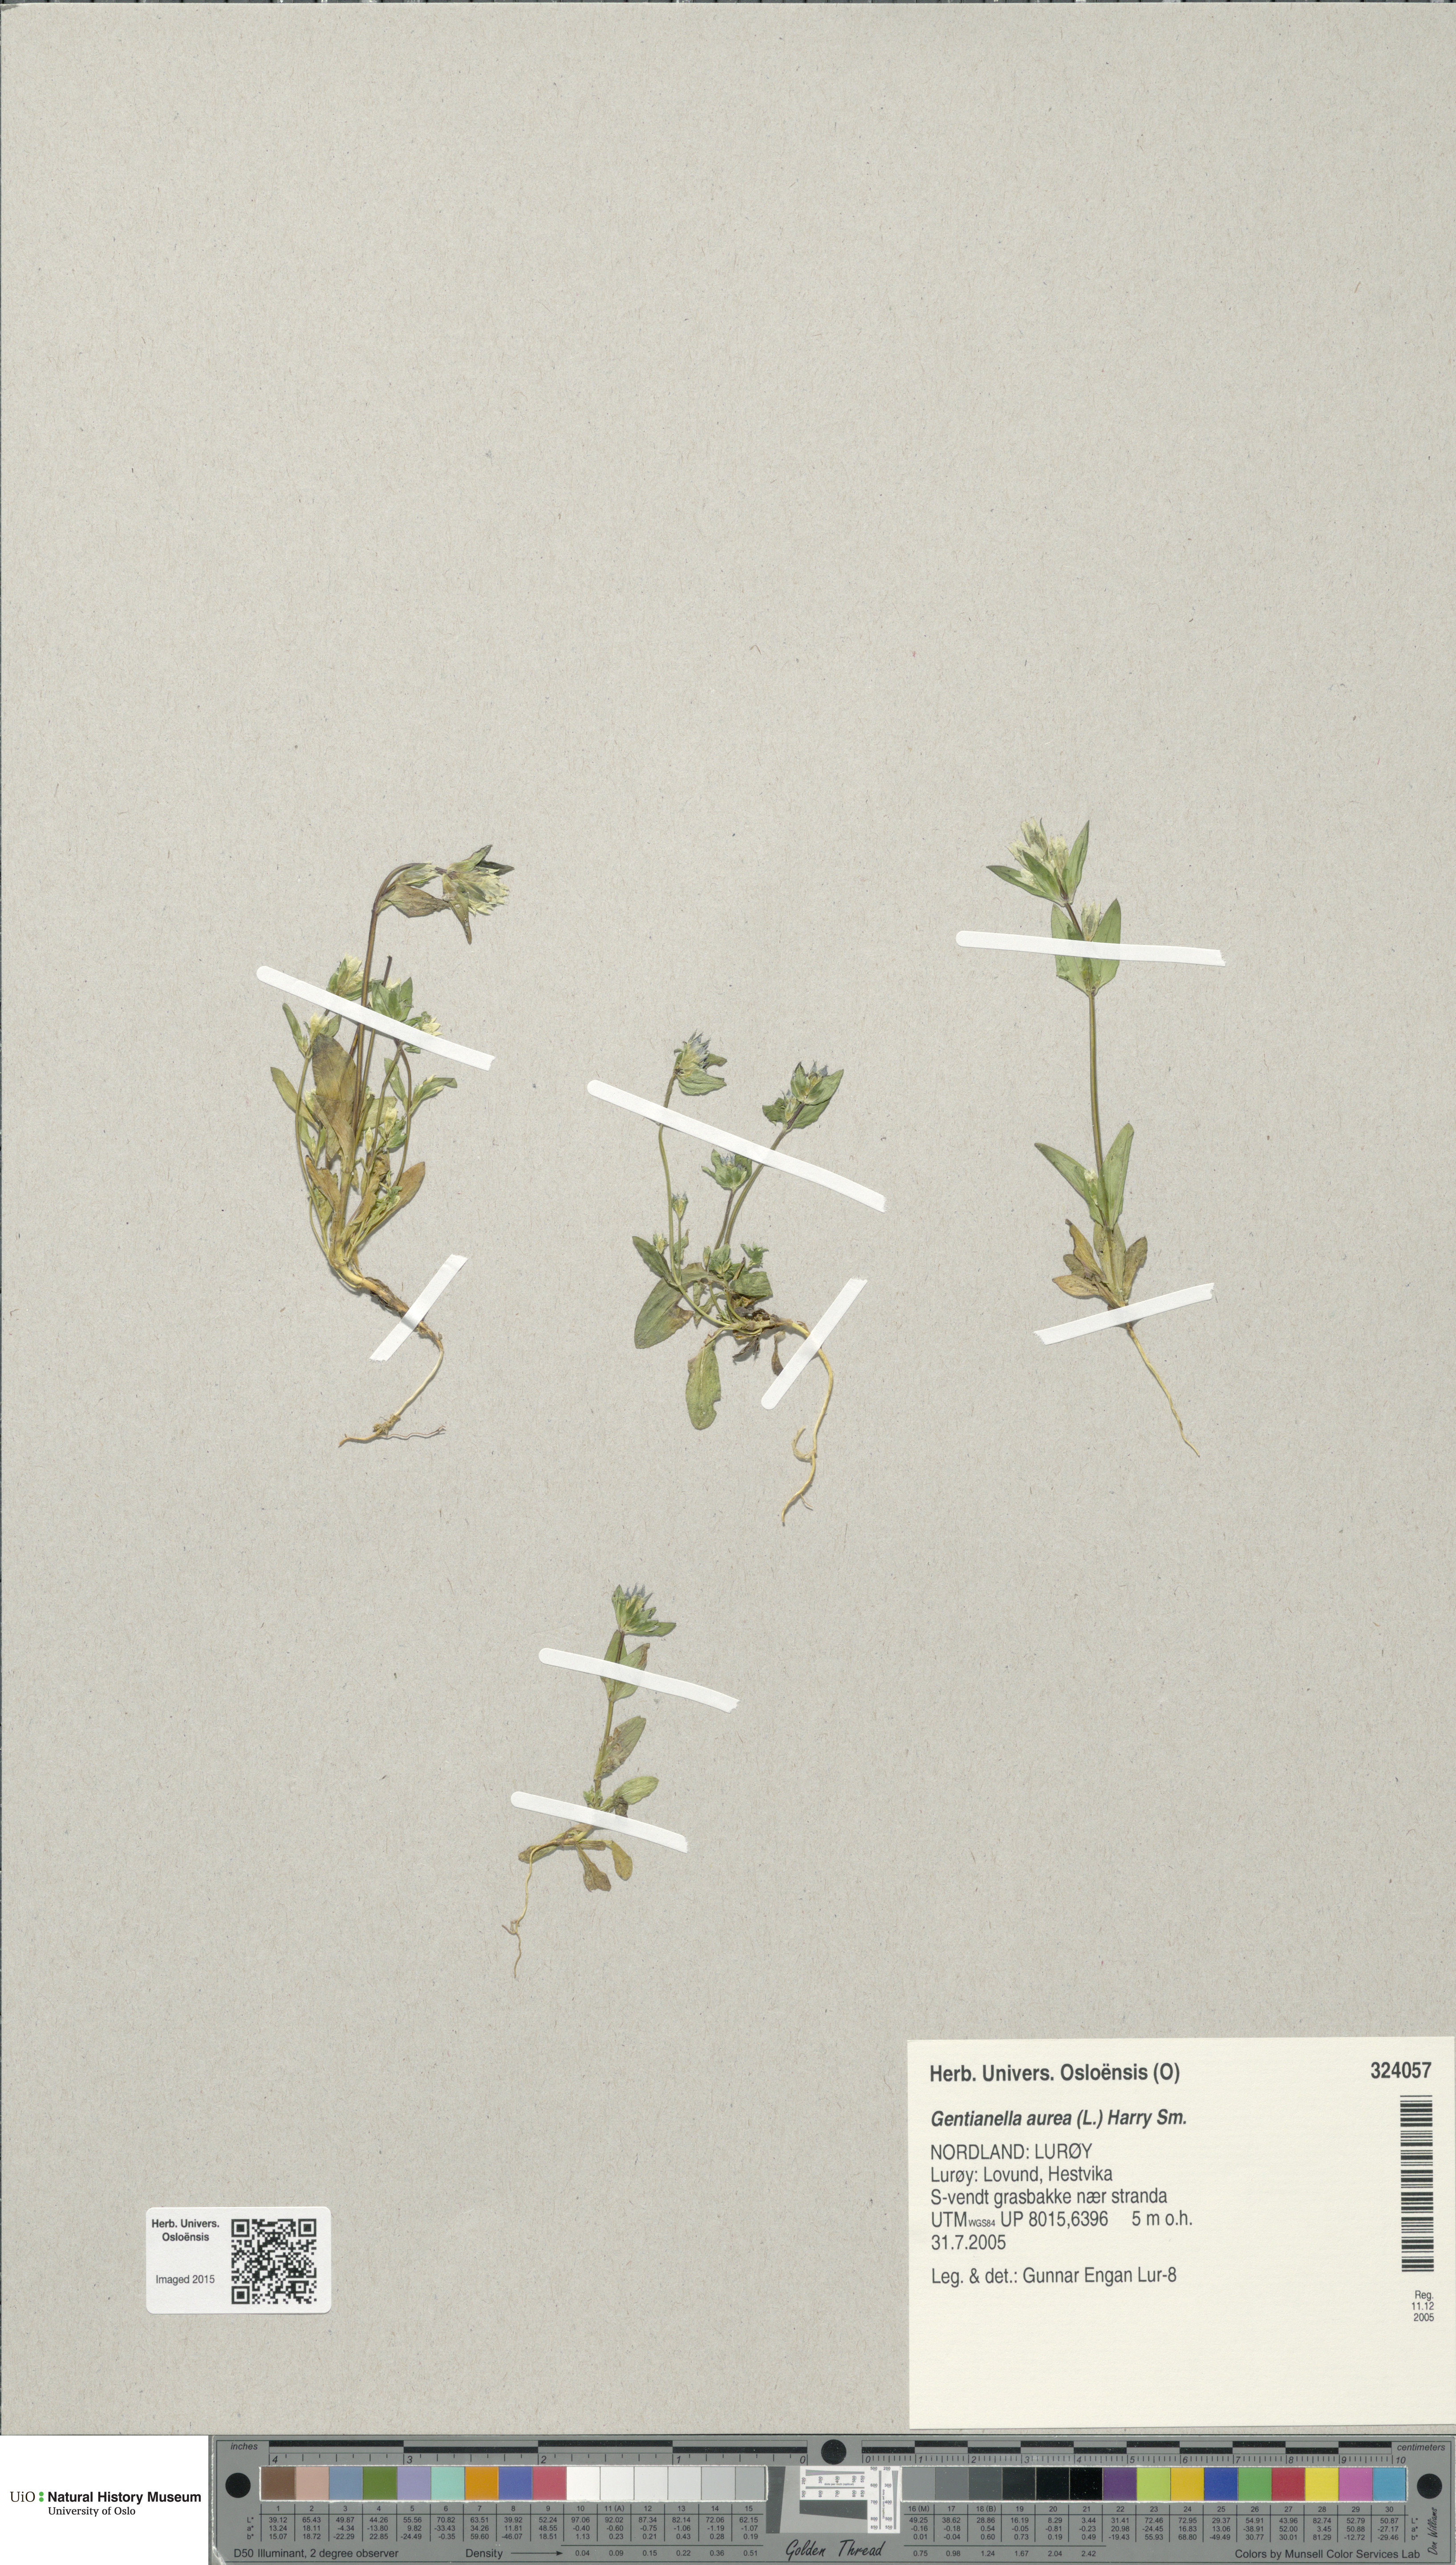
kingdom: Plantae
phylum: Tracheophyta
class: Magnoliopsida
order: Gentianales
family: Gentianaceae
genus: Gentianella
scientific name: Gentianella aurea
